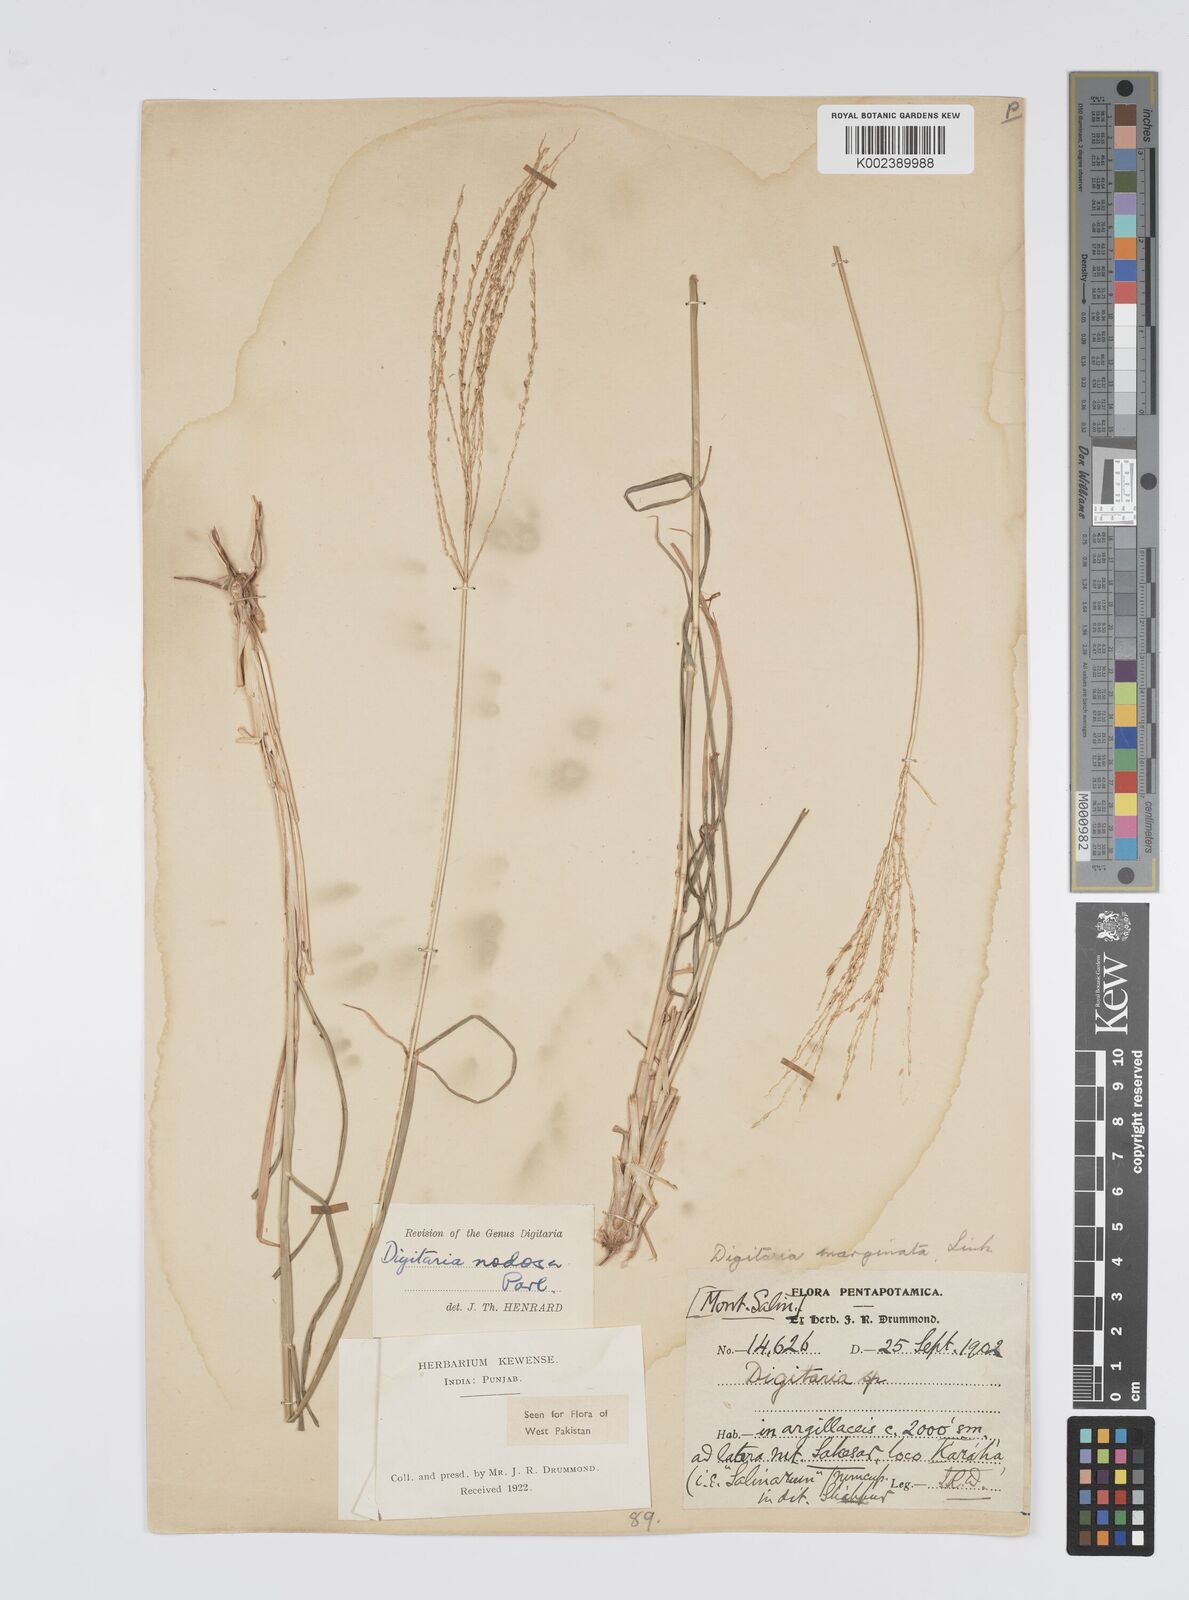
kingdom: Plantae
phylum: Tracheophyta
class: Liliopsida
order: Poales
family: Poaceae
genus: Digitaria
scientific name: Digitaria nodosa
